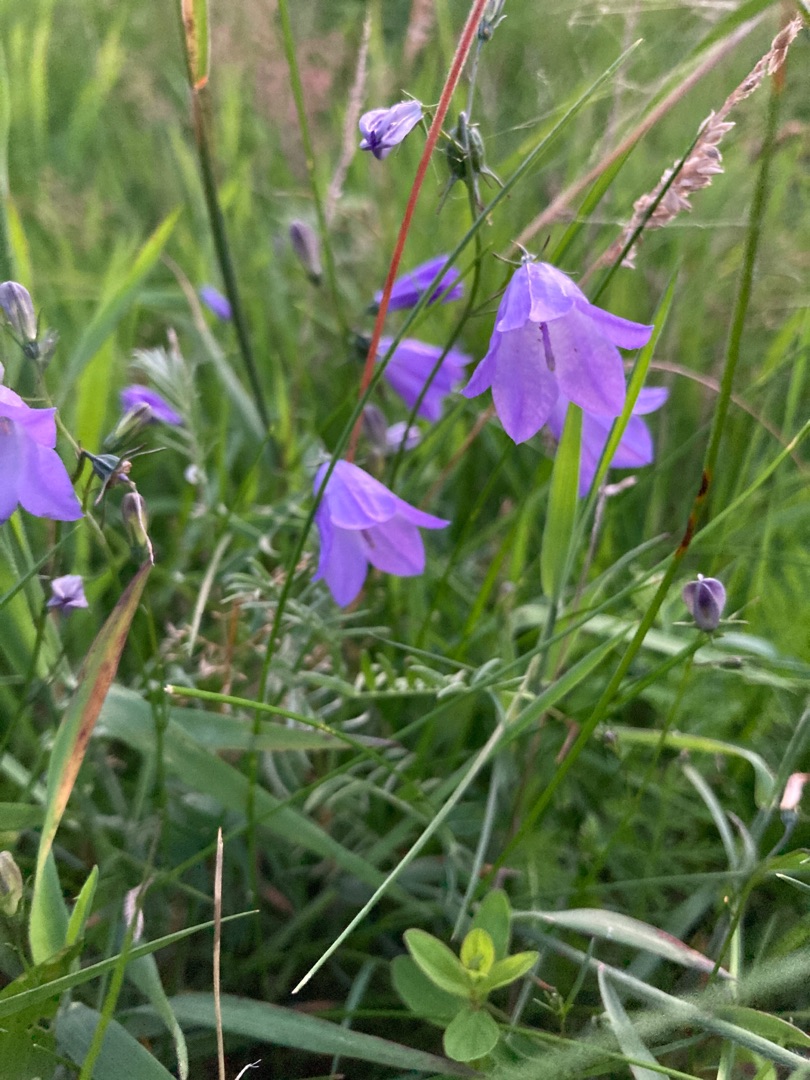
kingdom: Plantae
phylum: Tracheophyta
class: Magnoliopsida
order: Asterales
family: Campanulaceae
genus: Campanula
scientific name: Campanula rotundifolia
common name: Liden klokke
